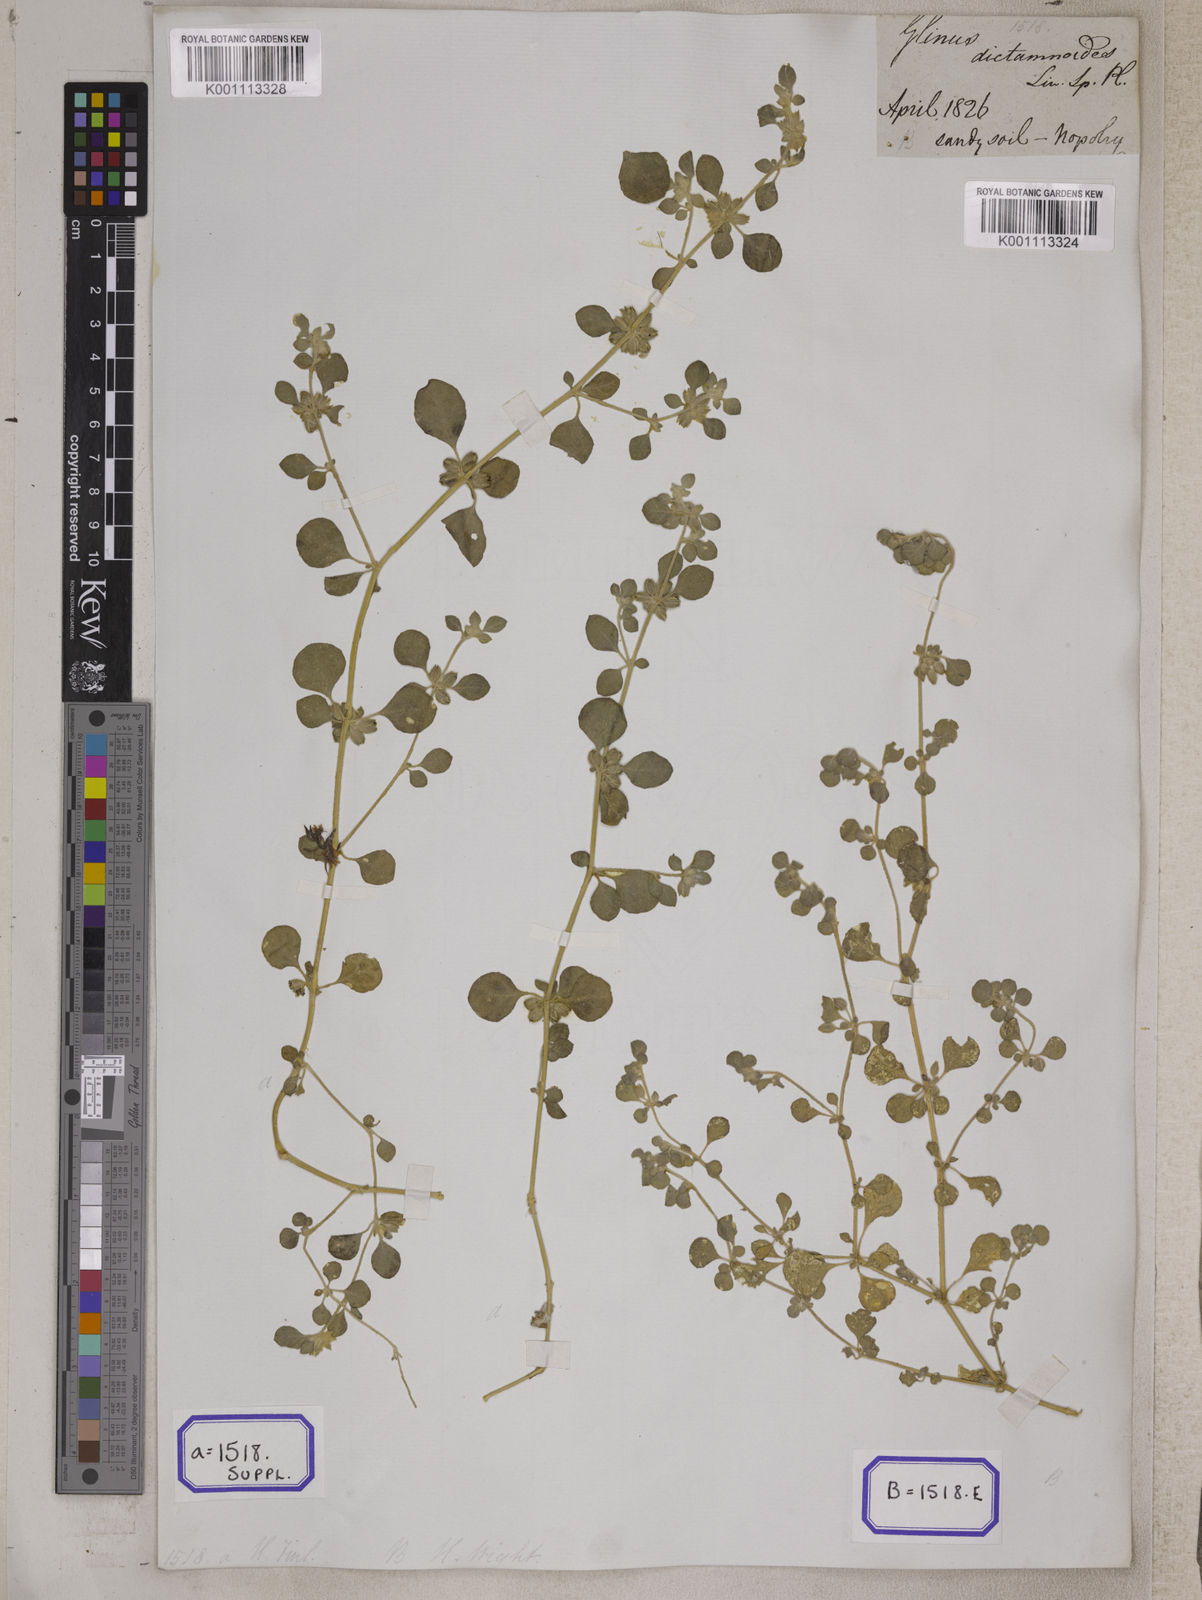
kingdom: Plantae
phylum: Tracheophyta
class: Magnoliopsida
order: Caryophyllales
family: Molluginaceae
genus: Glinus
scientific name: Glinus
